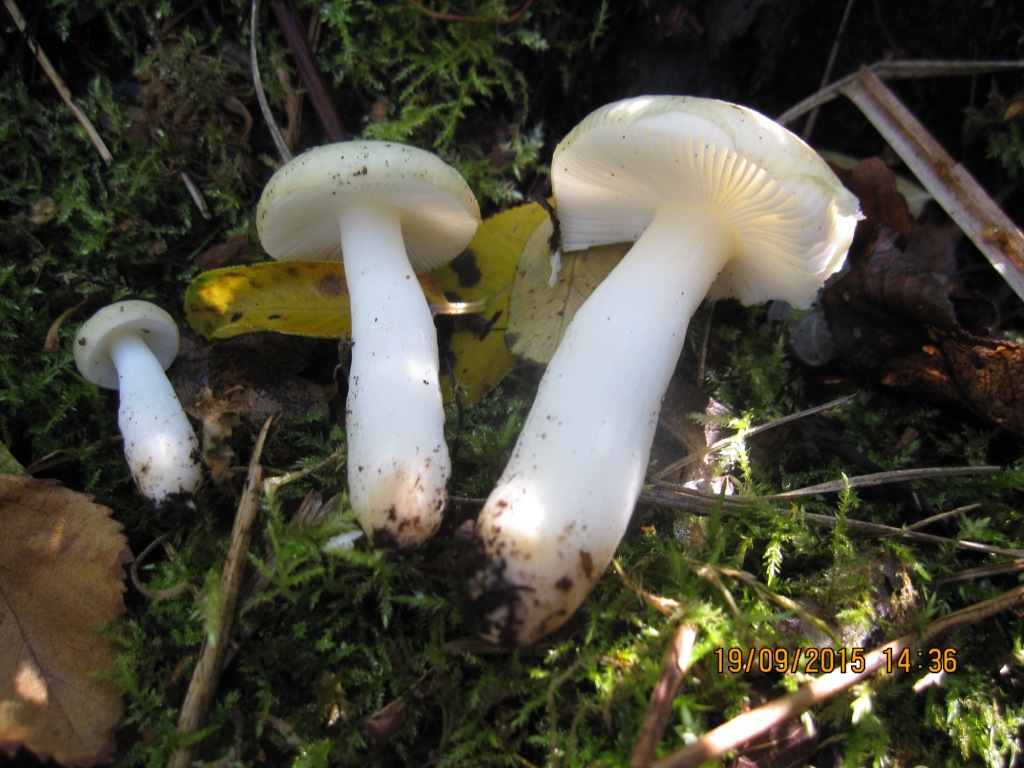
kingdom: Fungi
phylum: Basidiomycota
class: Agaricomycetes
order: Russulales
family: Russulaceae
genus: Russula
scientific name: Russula laccata
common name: klit-skørhat
